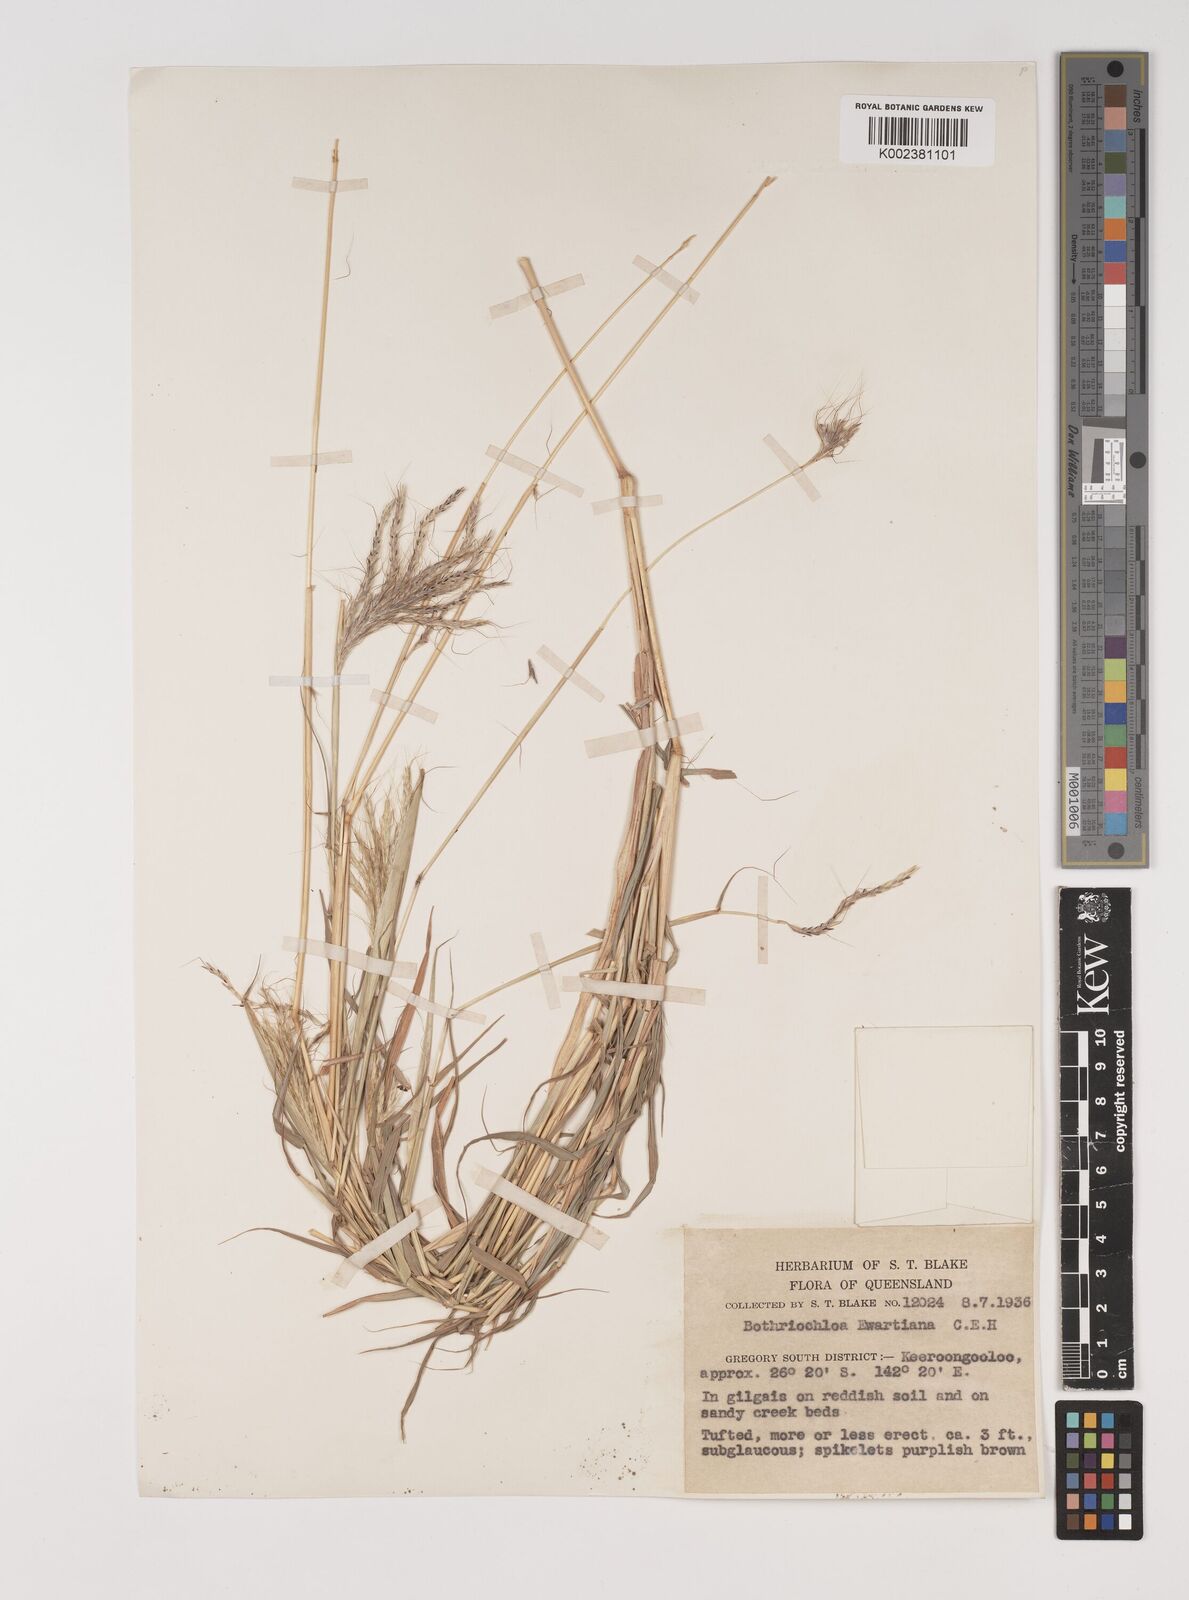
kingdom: Plantae
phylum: Tracheophyta
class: Liliopsida
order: Poales
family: Poaceae
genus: Bothriochloa
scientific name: Bothriochloa ewartiana
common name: Desert-bluegrass
